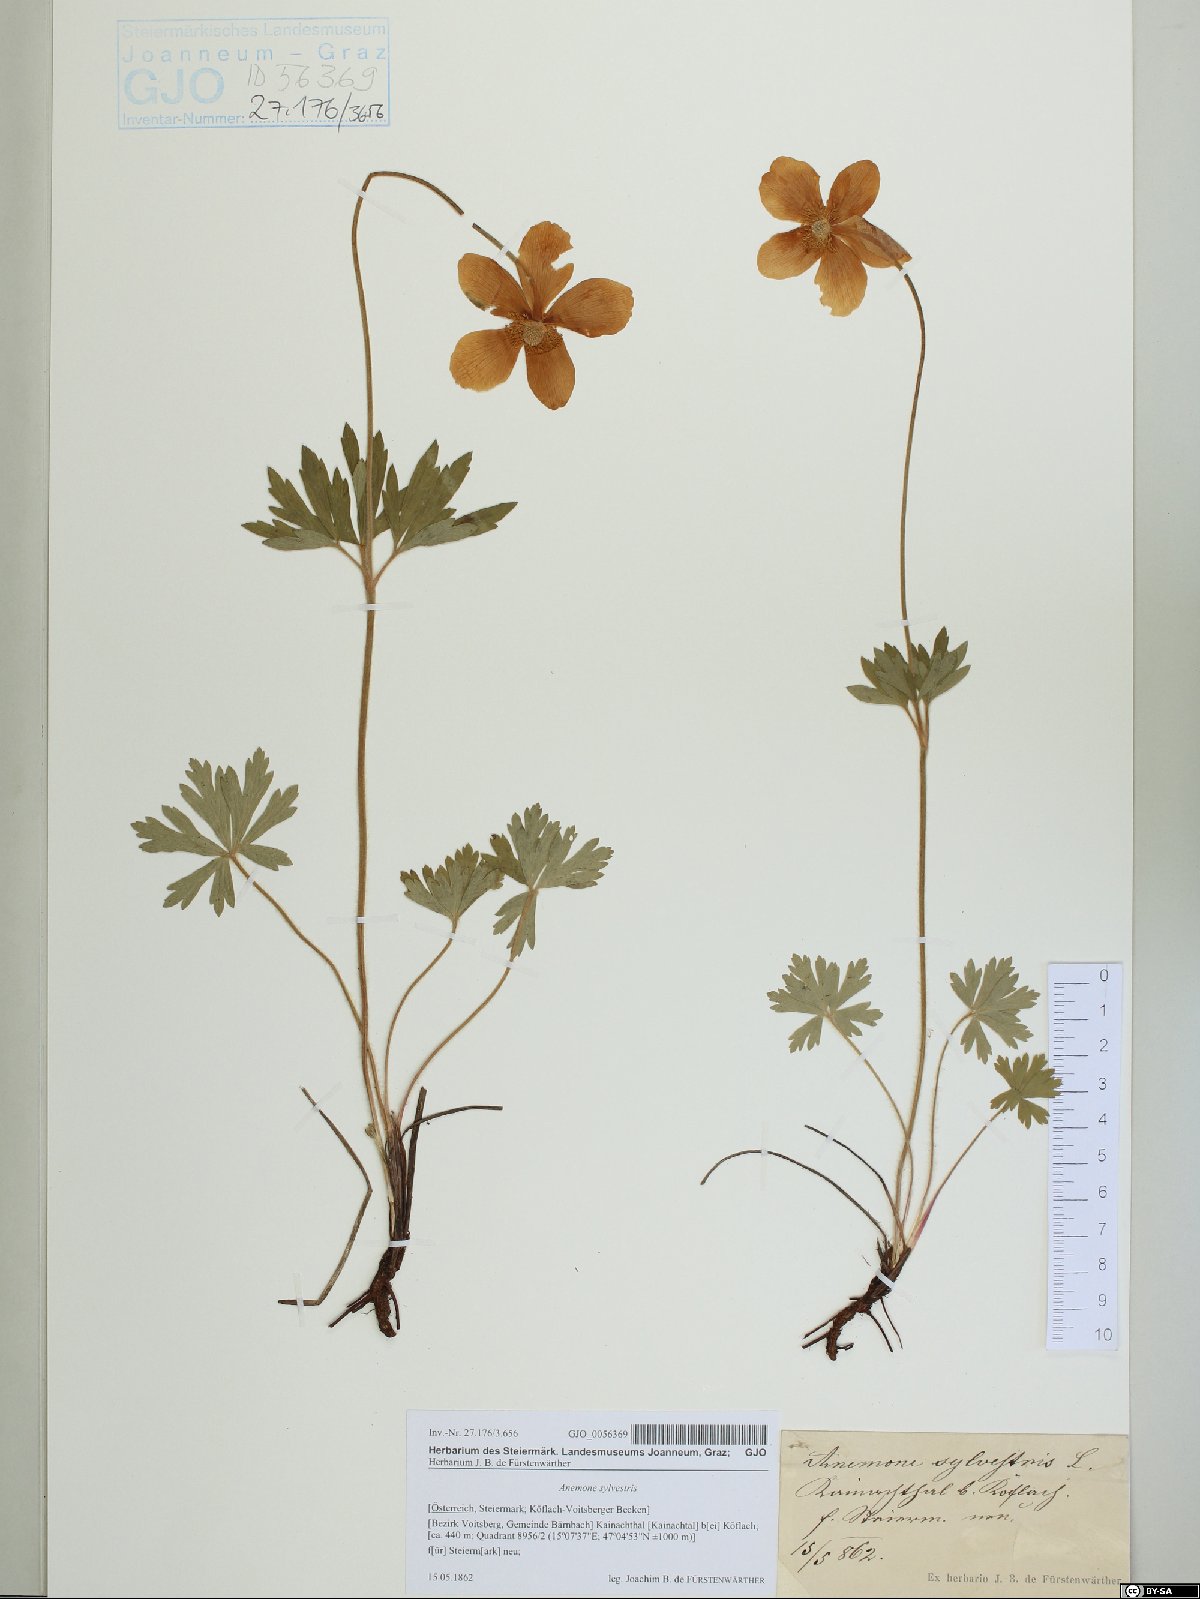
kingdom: Plantae
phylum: Tracheophyta
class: Magnoliopsida
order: Ranunculales
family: Ranunculaceae
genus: Anemone
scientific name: Anemone sylvestris
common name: Snowdrop anemone
